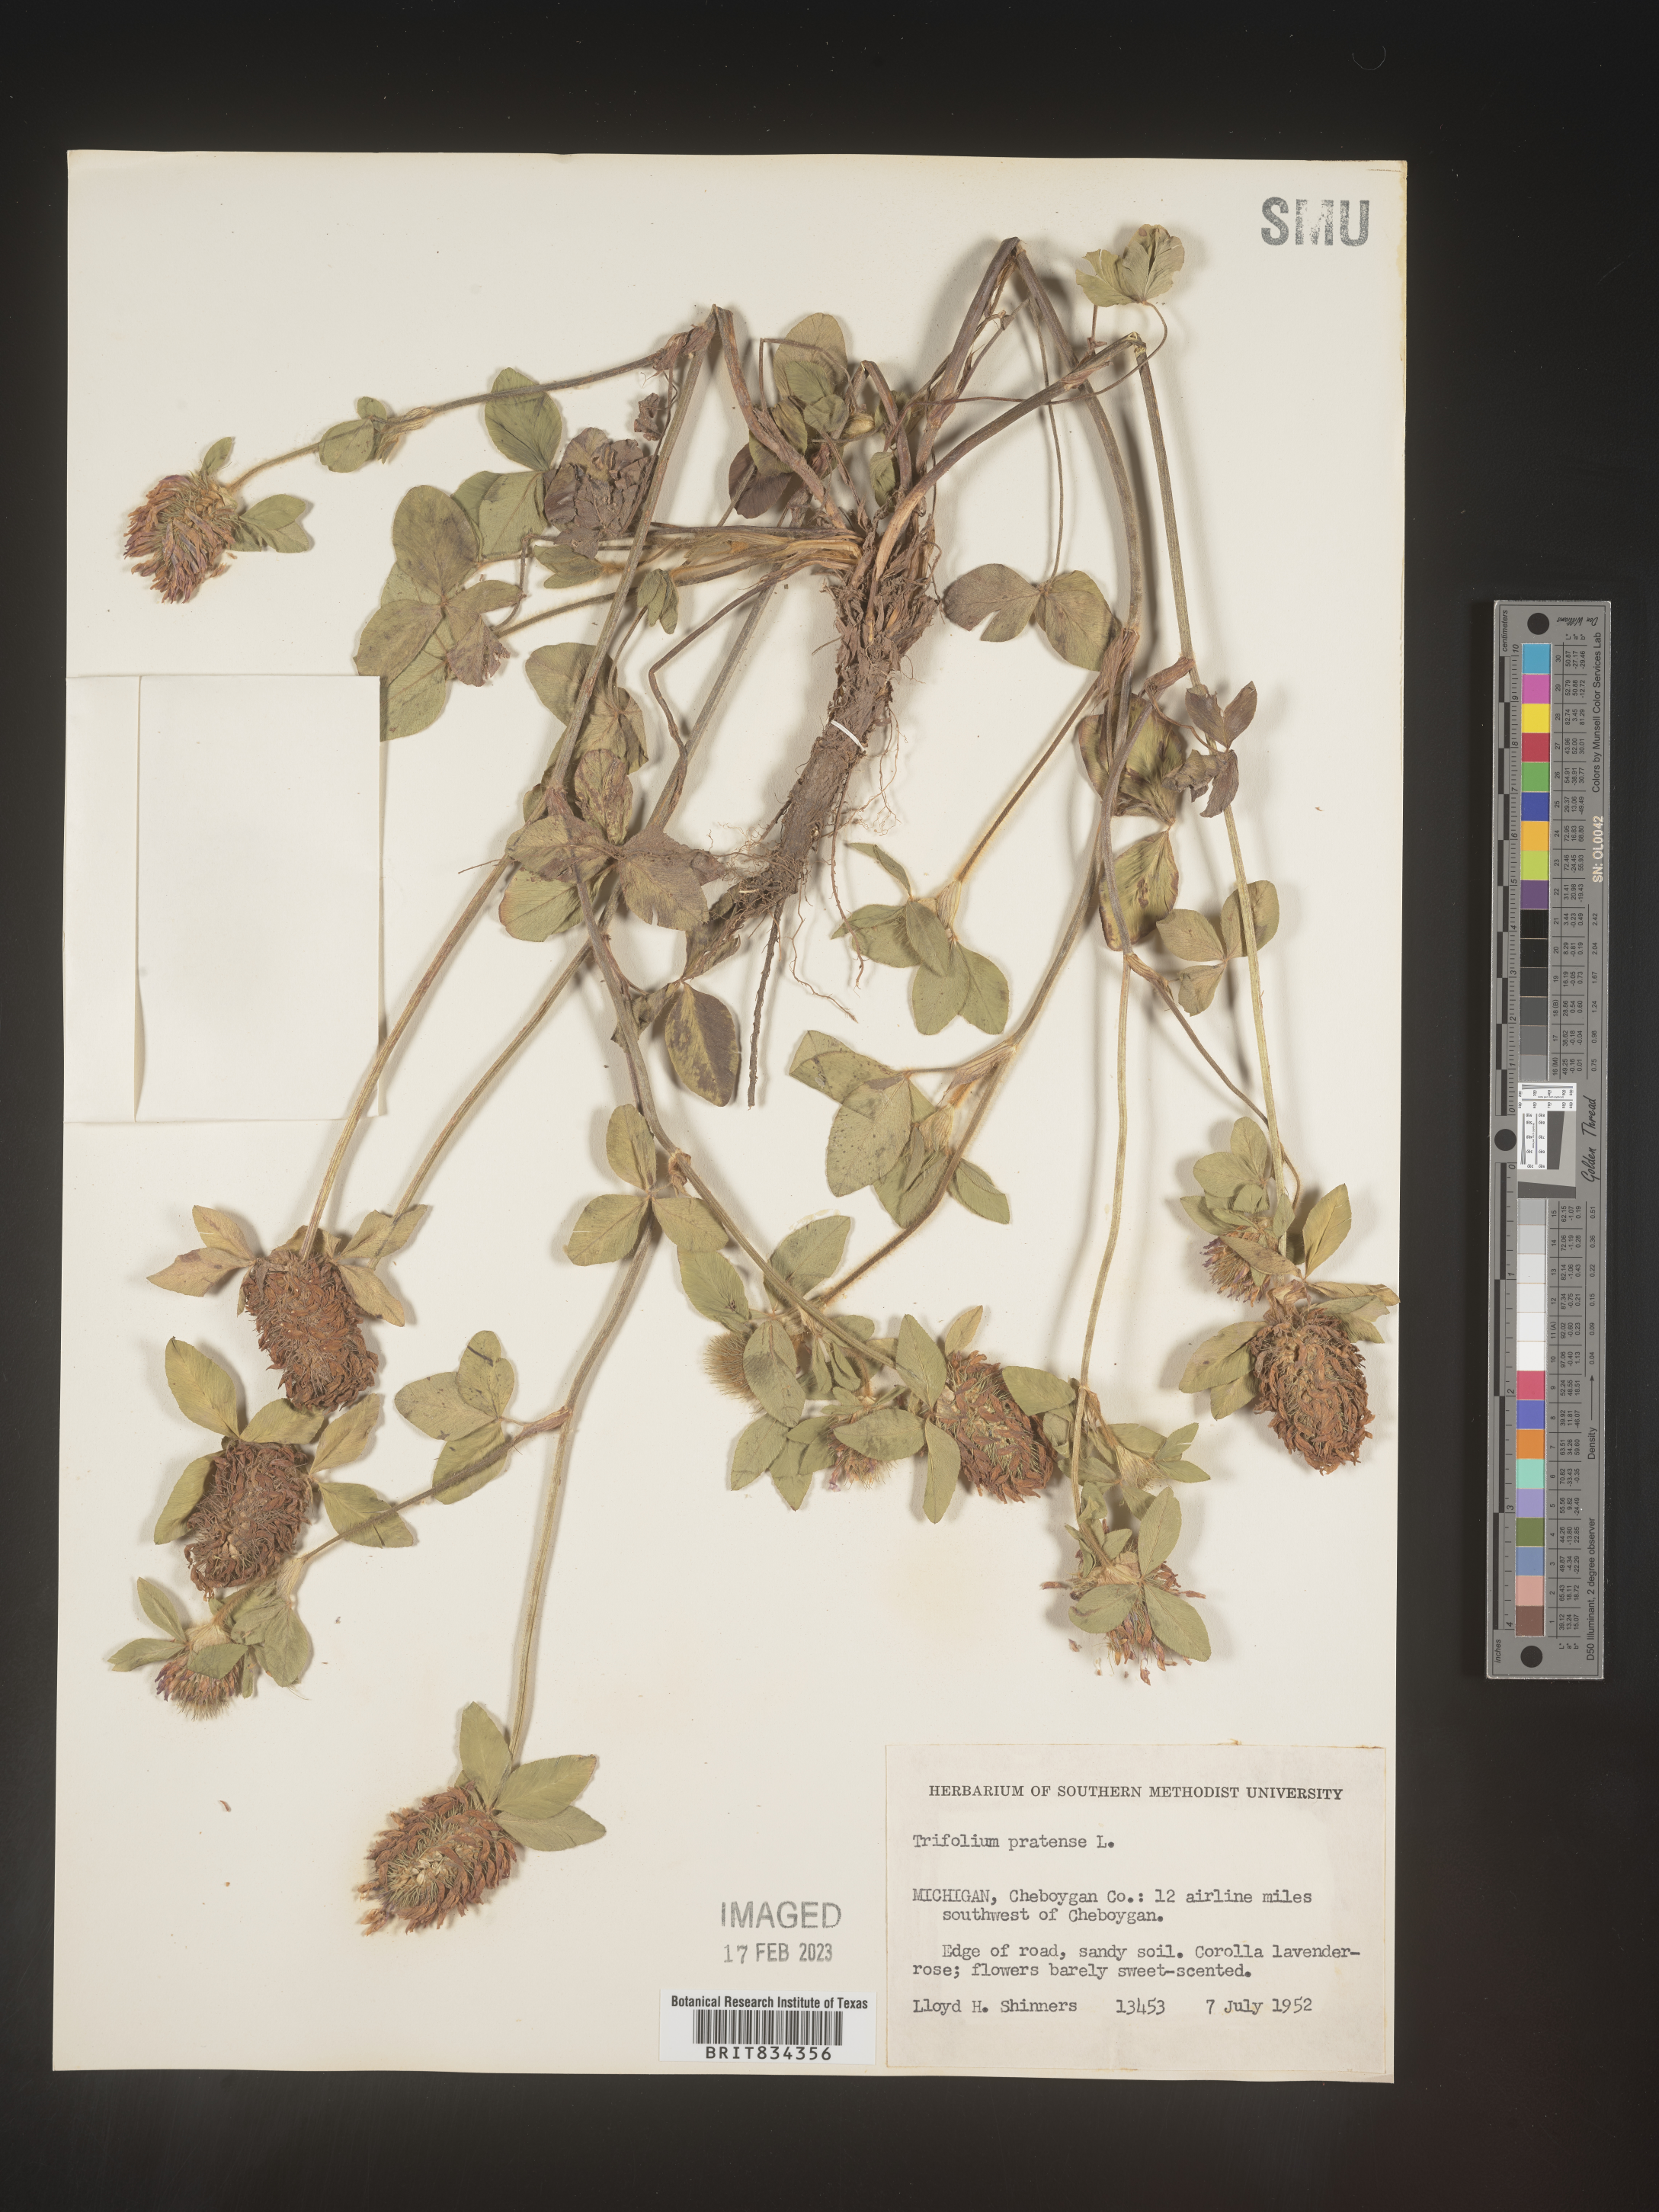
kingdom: Plantae
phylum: Tracheophyta
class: Magnoliopsida
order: Fabales
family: Fabaceae
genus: Trifolium
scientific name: Trifolium pratense
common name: Red clover
